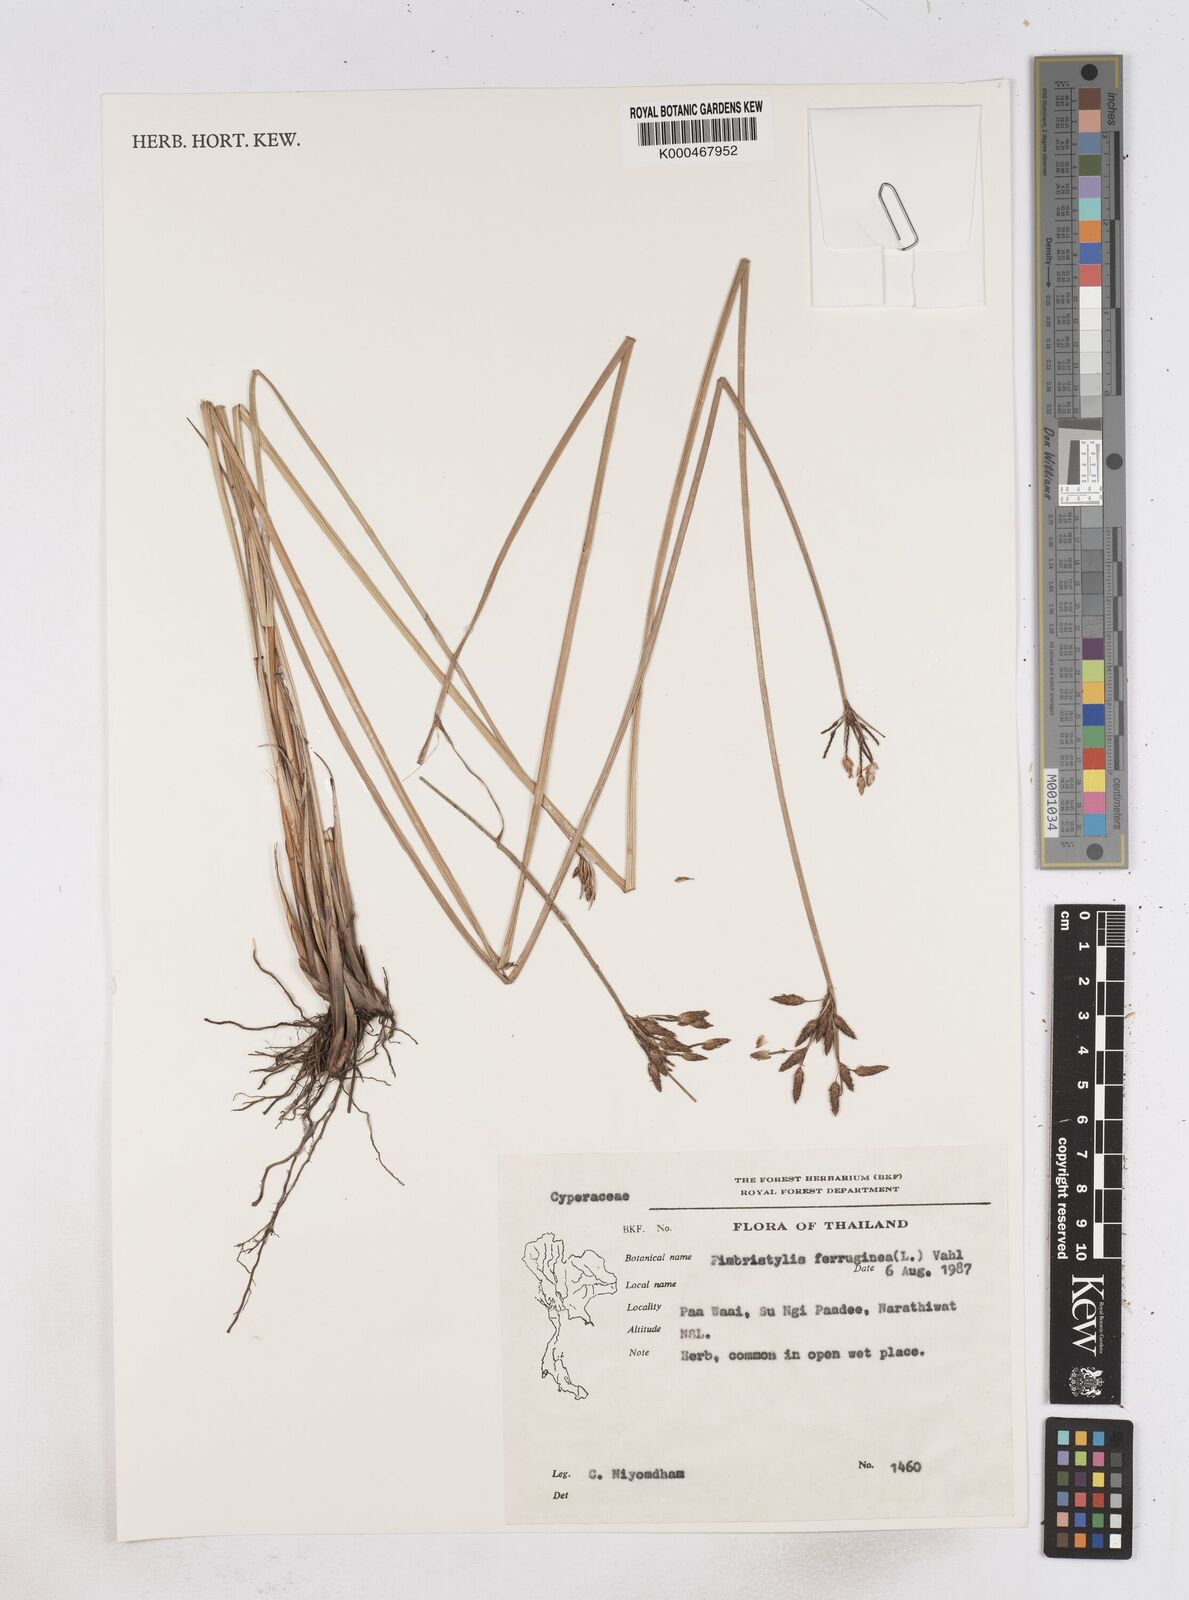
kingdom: Plantae
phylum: Tracheophyta
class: Liliopsida
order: Poales
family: Cyperaceae
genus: Fimbristylis
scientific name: Fimbristylis ferruginea
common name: West indian fimbry
